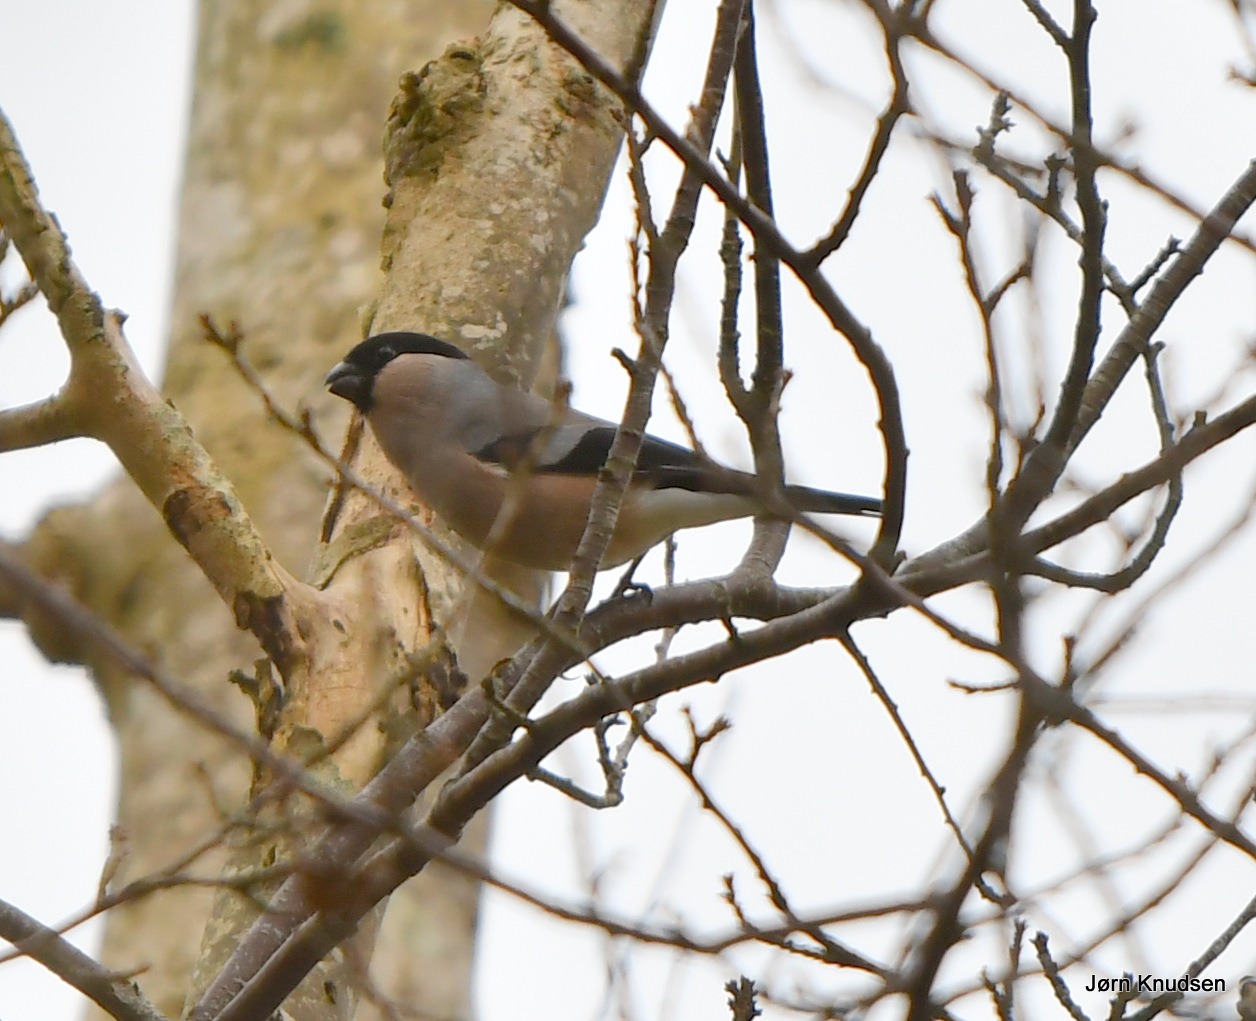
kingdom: Animalia
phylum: Chordata
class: Aves
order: Passeriformes
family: Fringillidae
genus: Pyrrhula
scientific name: Pyrrhula pyrrhula
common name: Dompap
